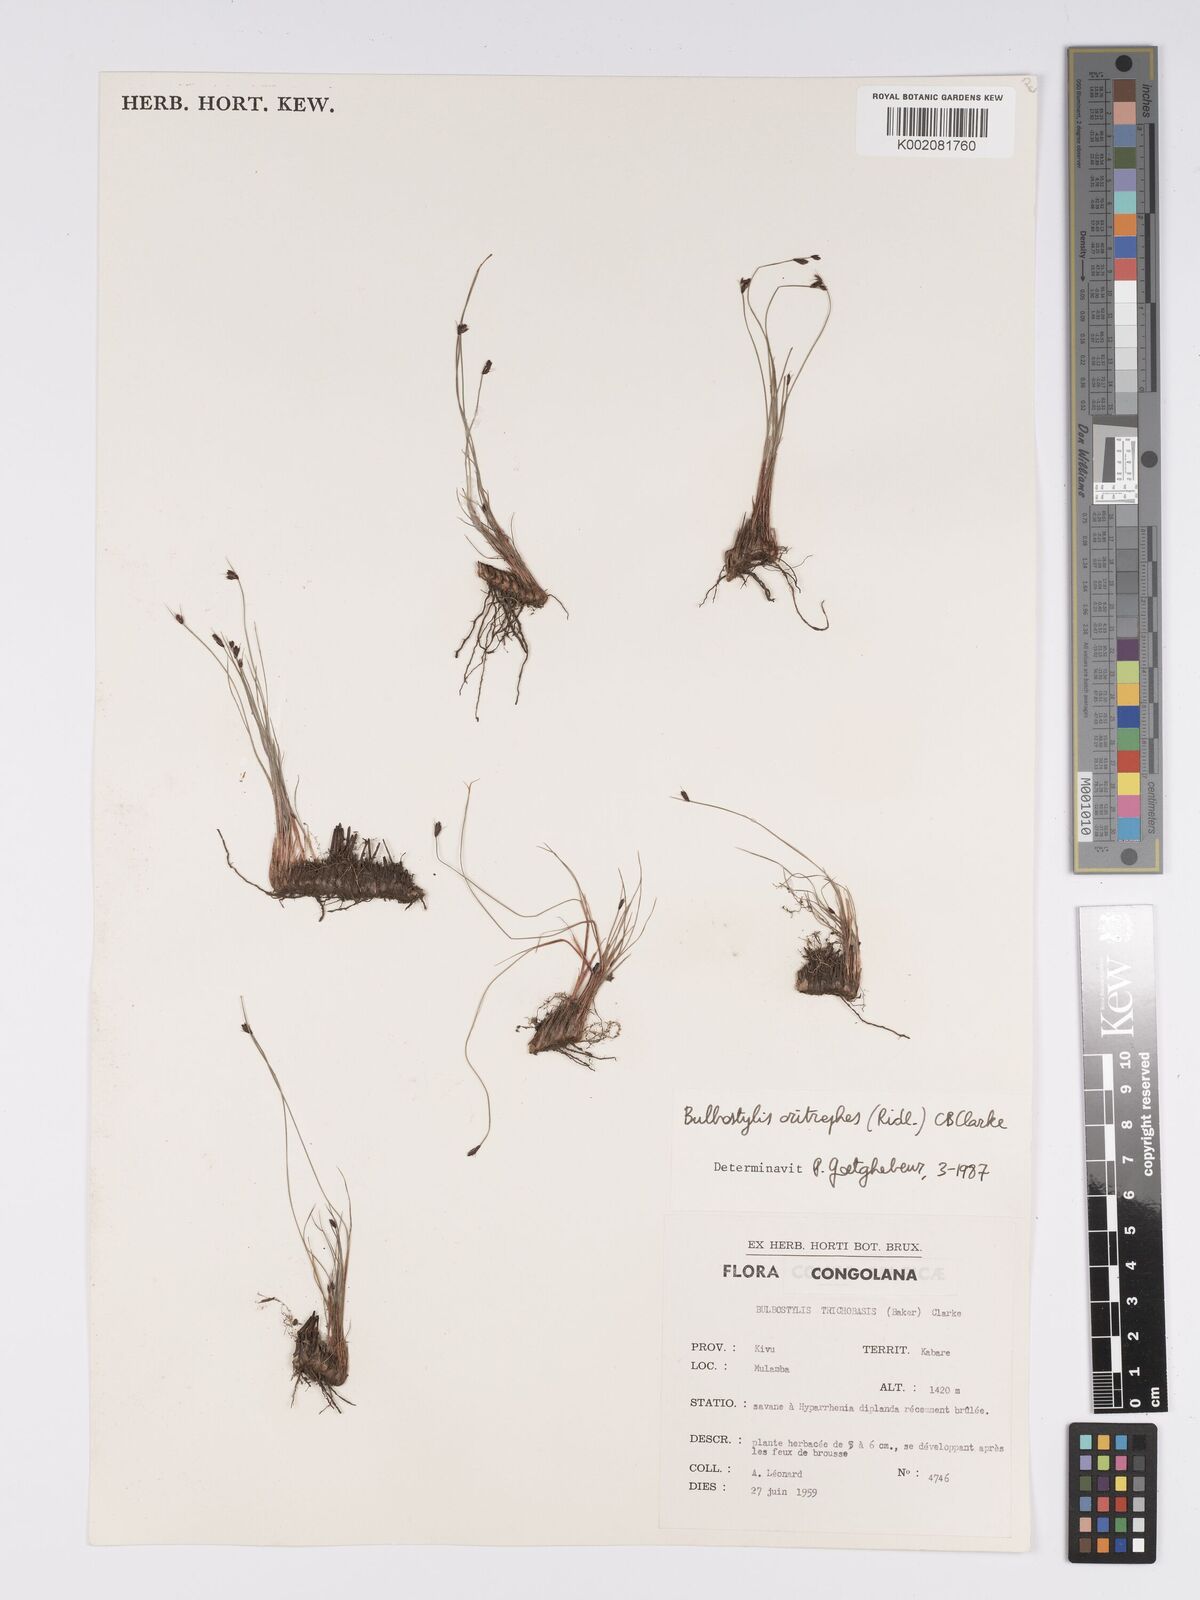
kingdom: Plantae
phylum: Tracheophyta
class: Liliopsida
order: Poales
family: Cyperaceae
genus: Bulbostylis
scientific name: Bulbostylis oritrephes
